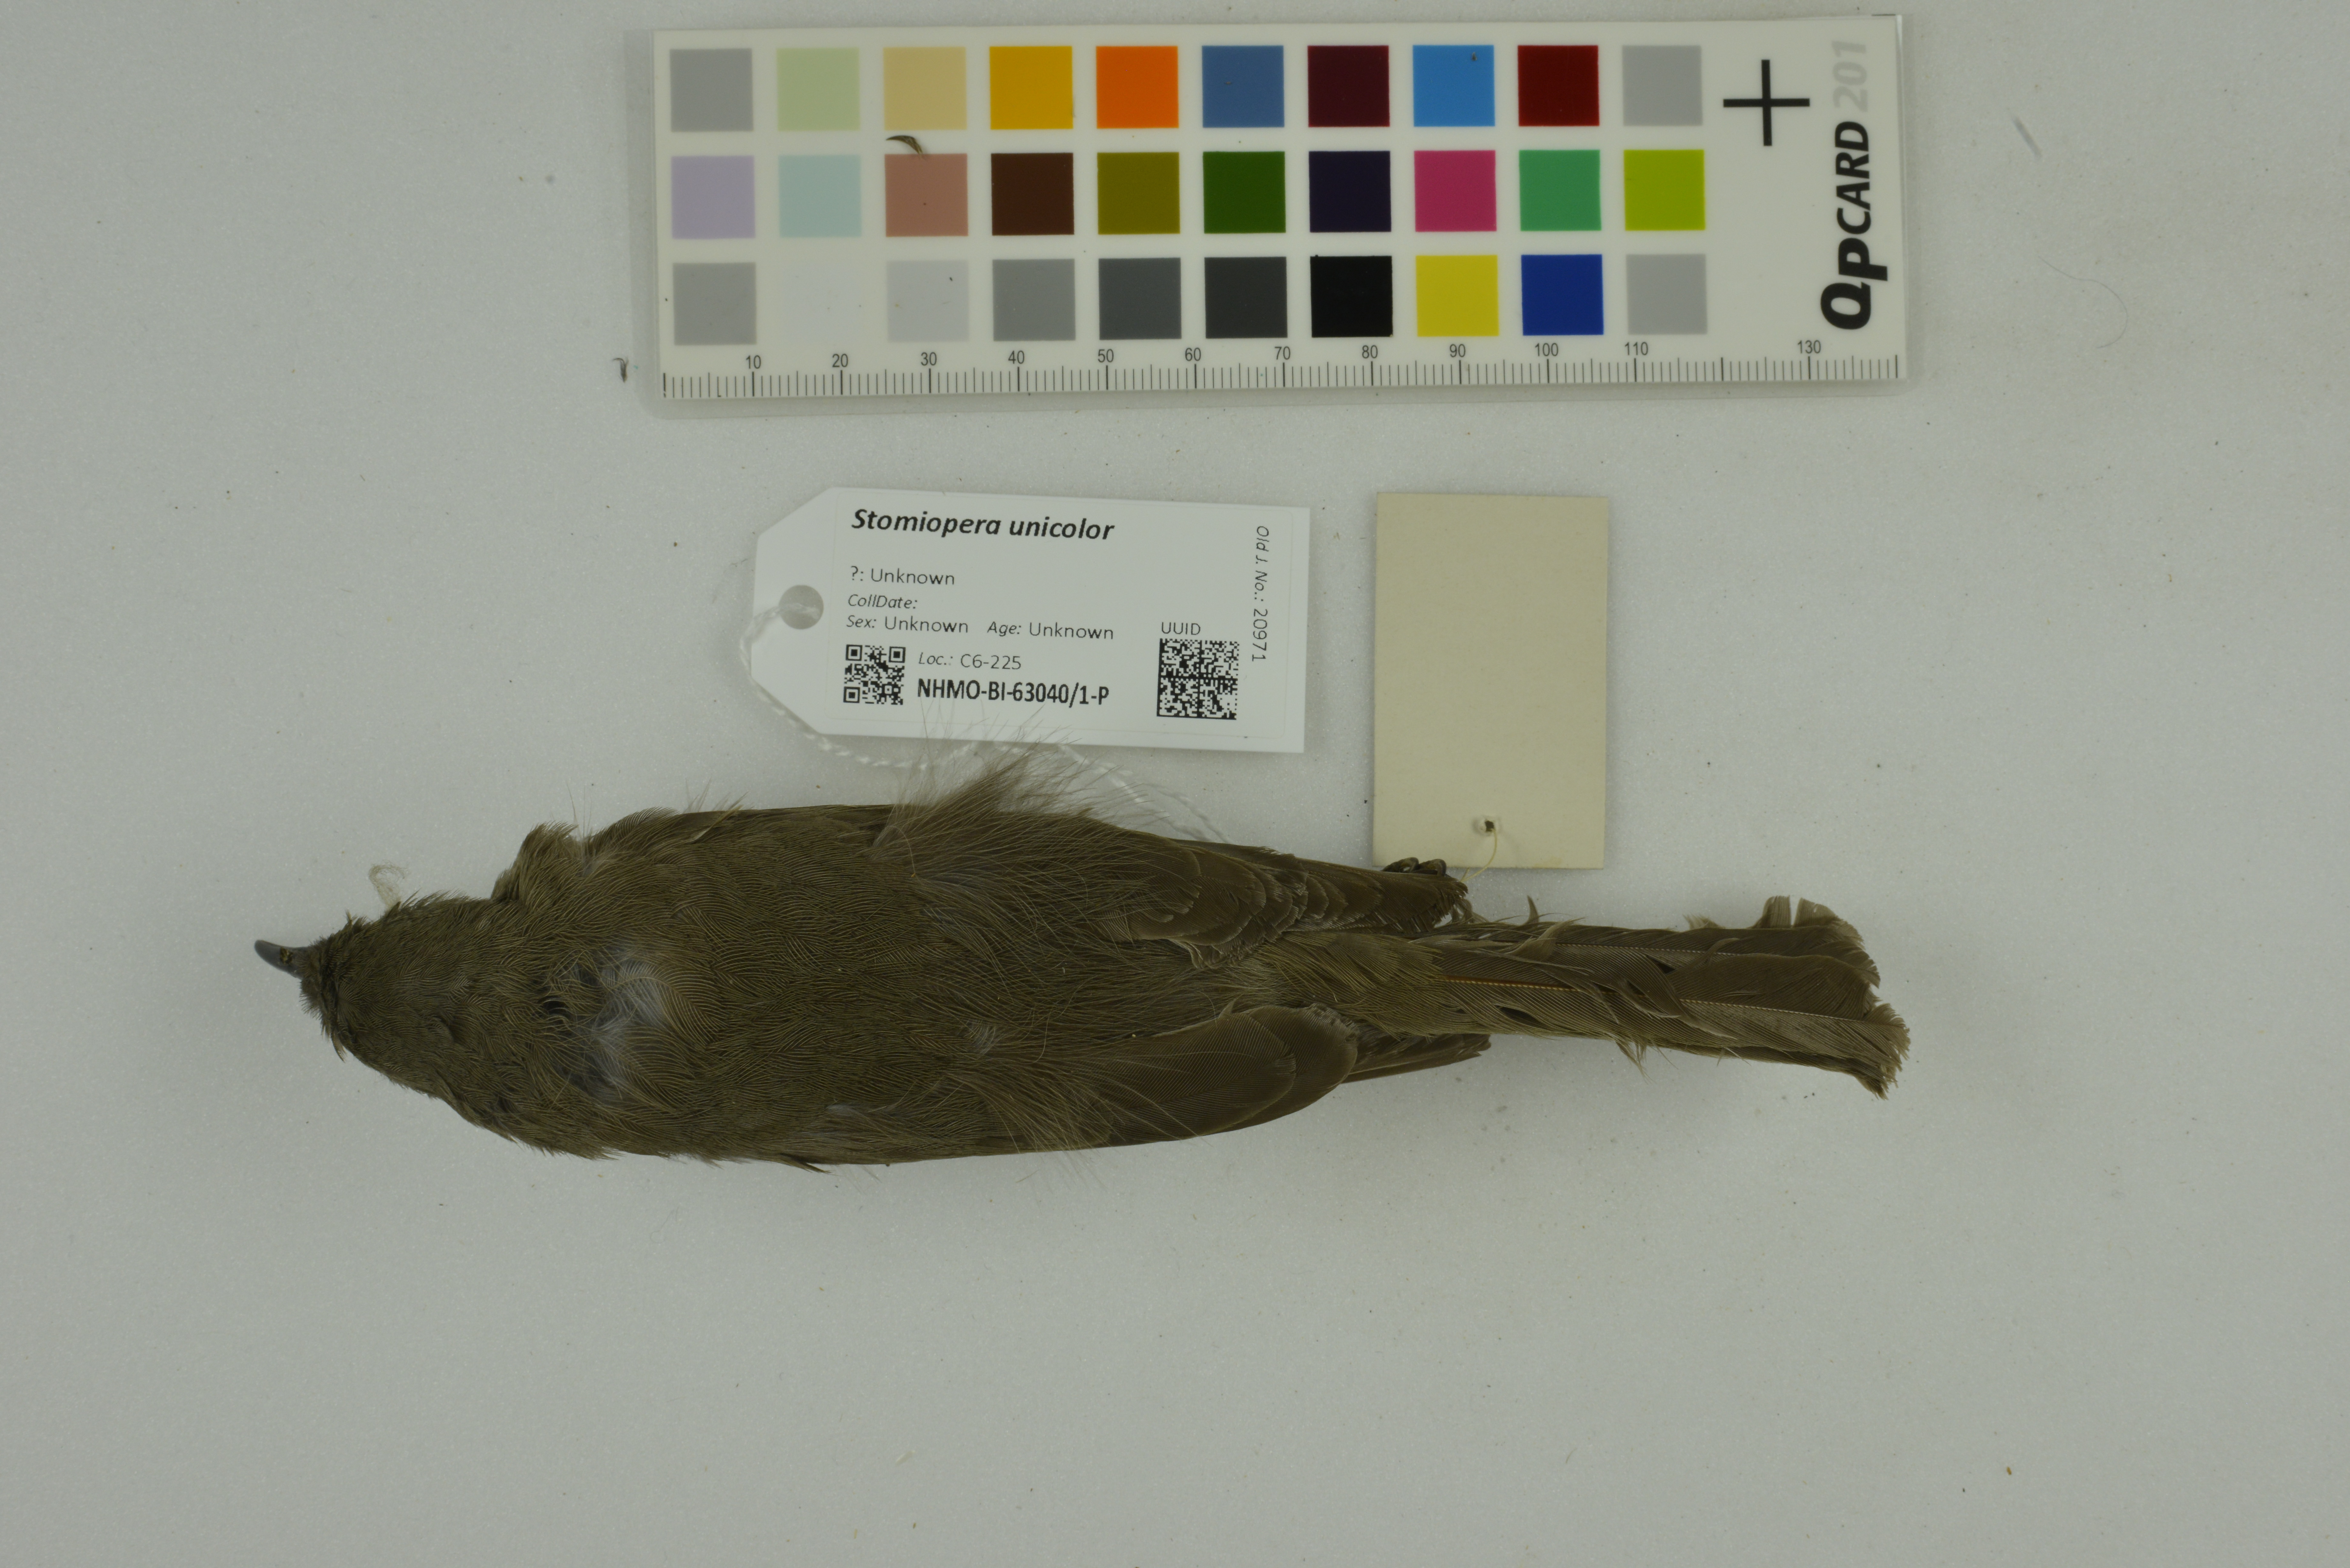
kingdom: Animalia
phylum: Chordata
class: Aves
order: Passeriformes
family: Meliphagidae
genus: Stomiopera
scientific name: Stomiopera unicolor
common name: White-gaped honeyeater
